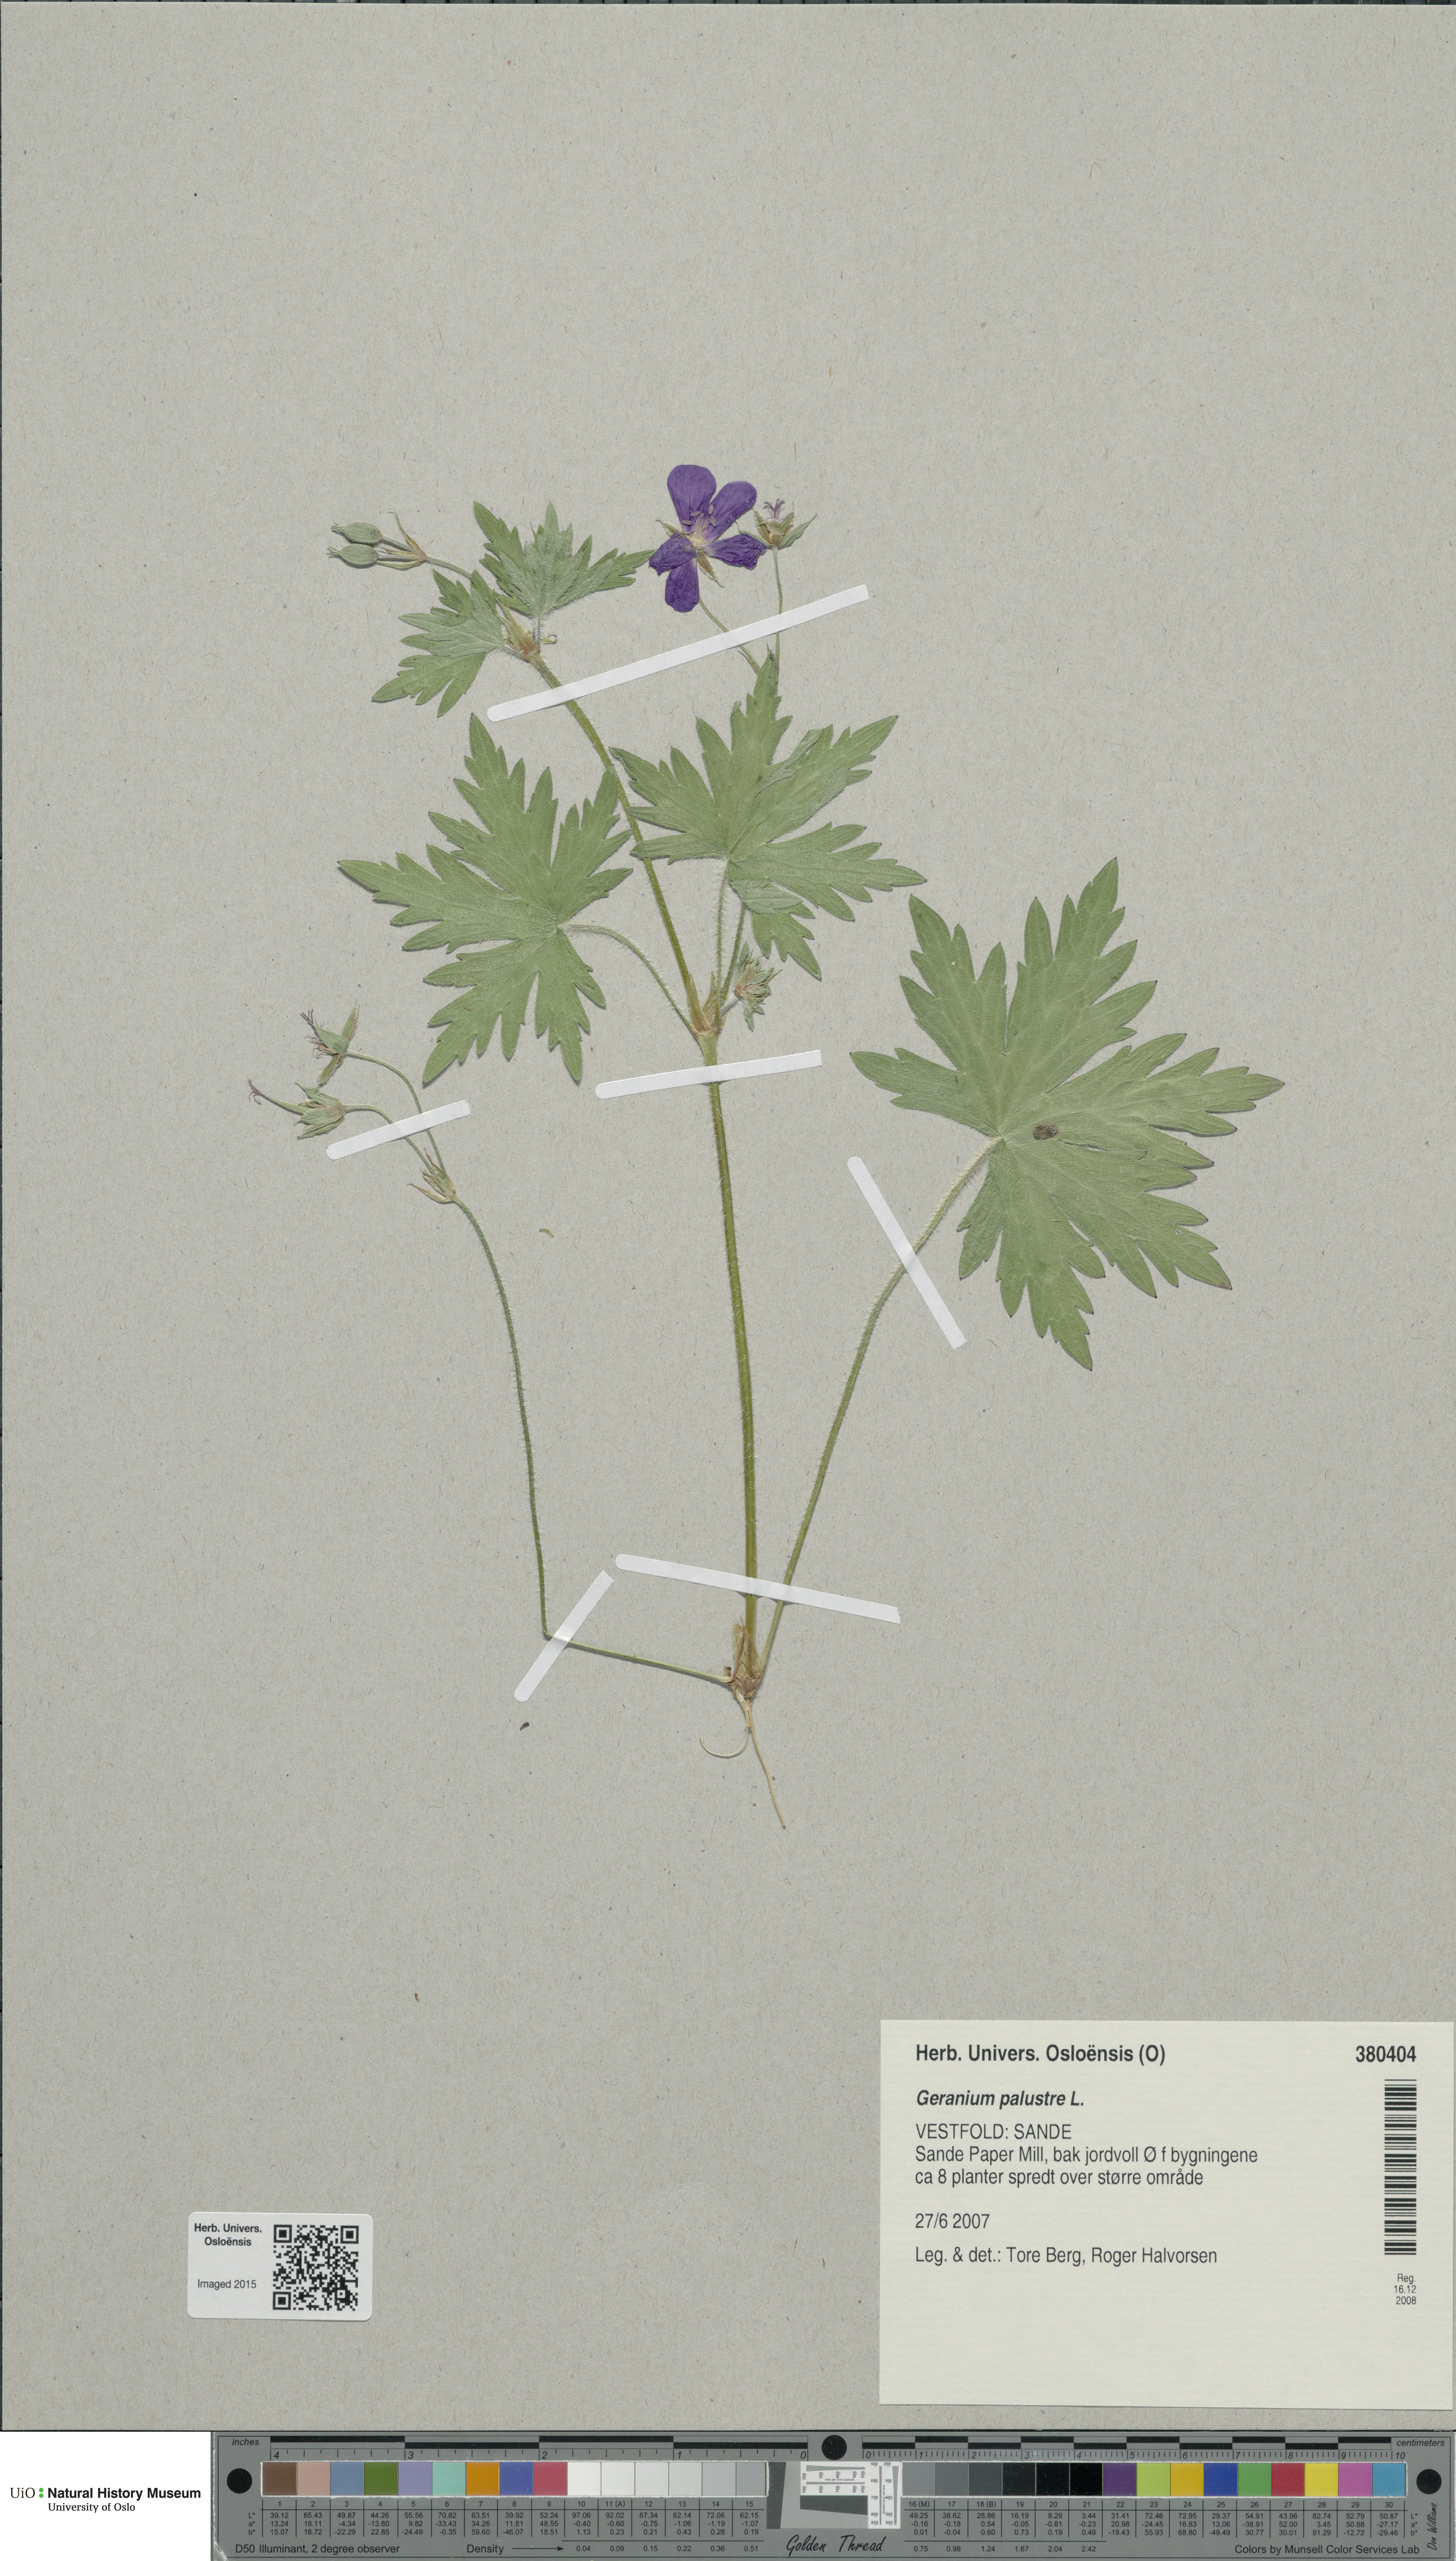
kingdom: Plantae
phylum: Tracheophyta
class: Magnoliopsida
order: Geraniales
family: Geraniaceae
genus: Geranium
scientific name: Geranium palustre
